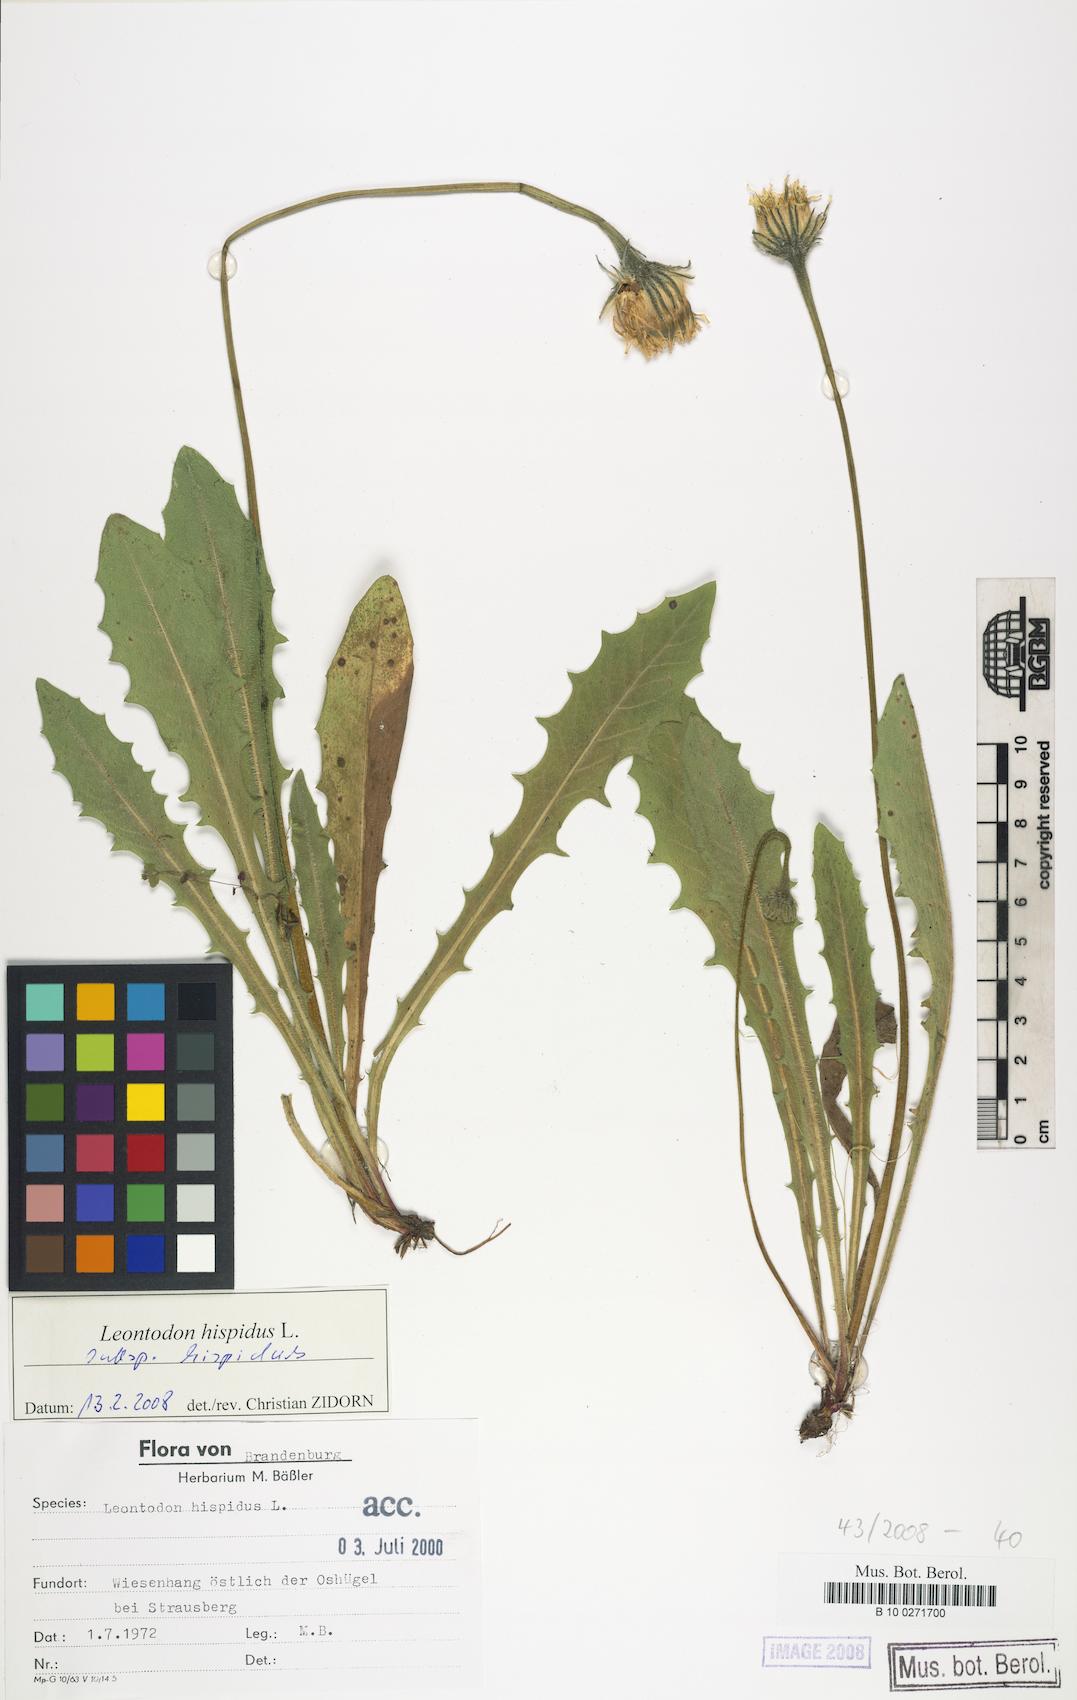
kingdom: Plantae
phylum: Tracheophyta
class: Magnoliopsida
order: Asterales
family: Asteraceae
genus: Leontodon
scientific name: Leontodon hispidus
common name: Rough hawkbit
